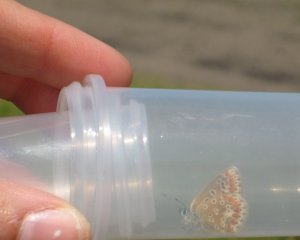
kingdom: Animalia
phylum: Arthropoda
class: Insecta
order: Lepidoptera
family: Lycaenidae
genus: Polyommatus
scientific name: Polyommatus icarus
